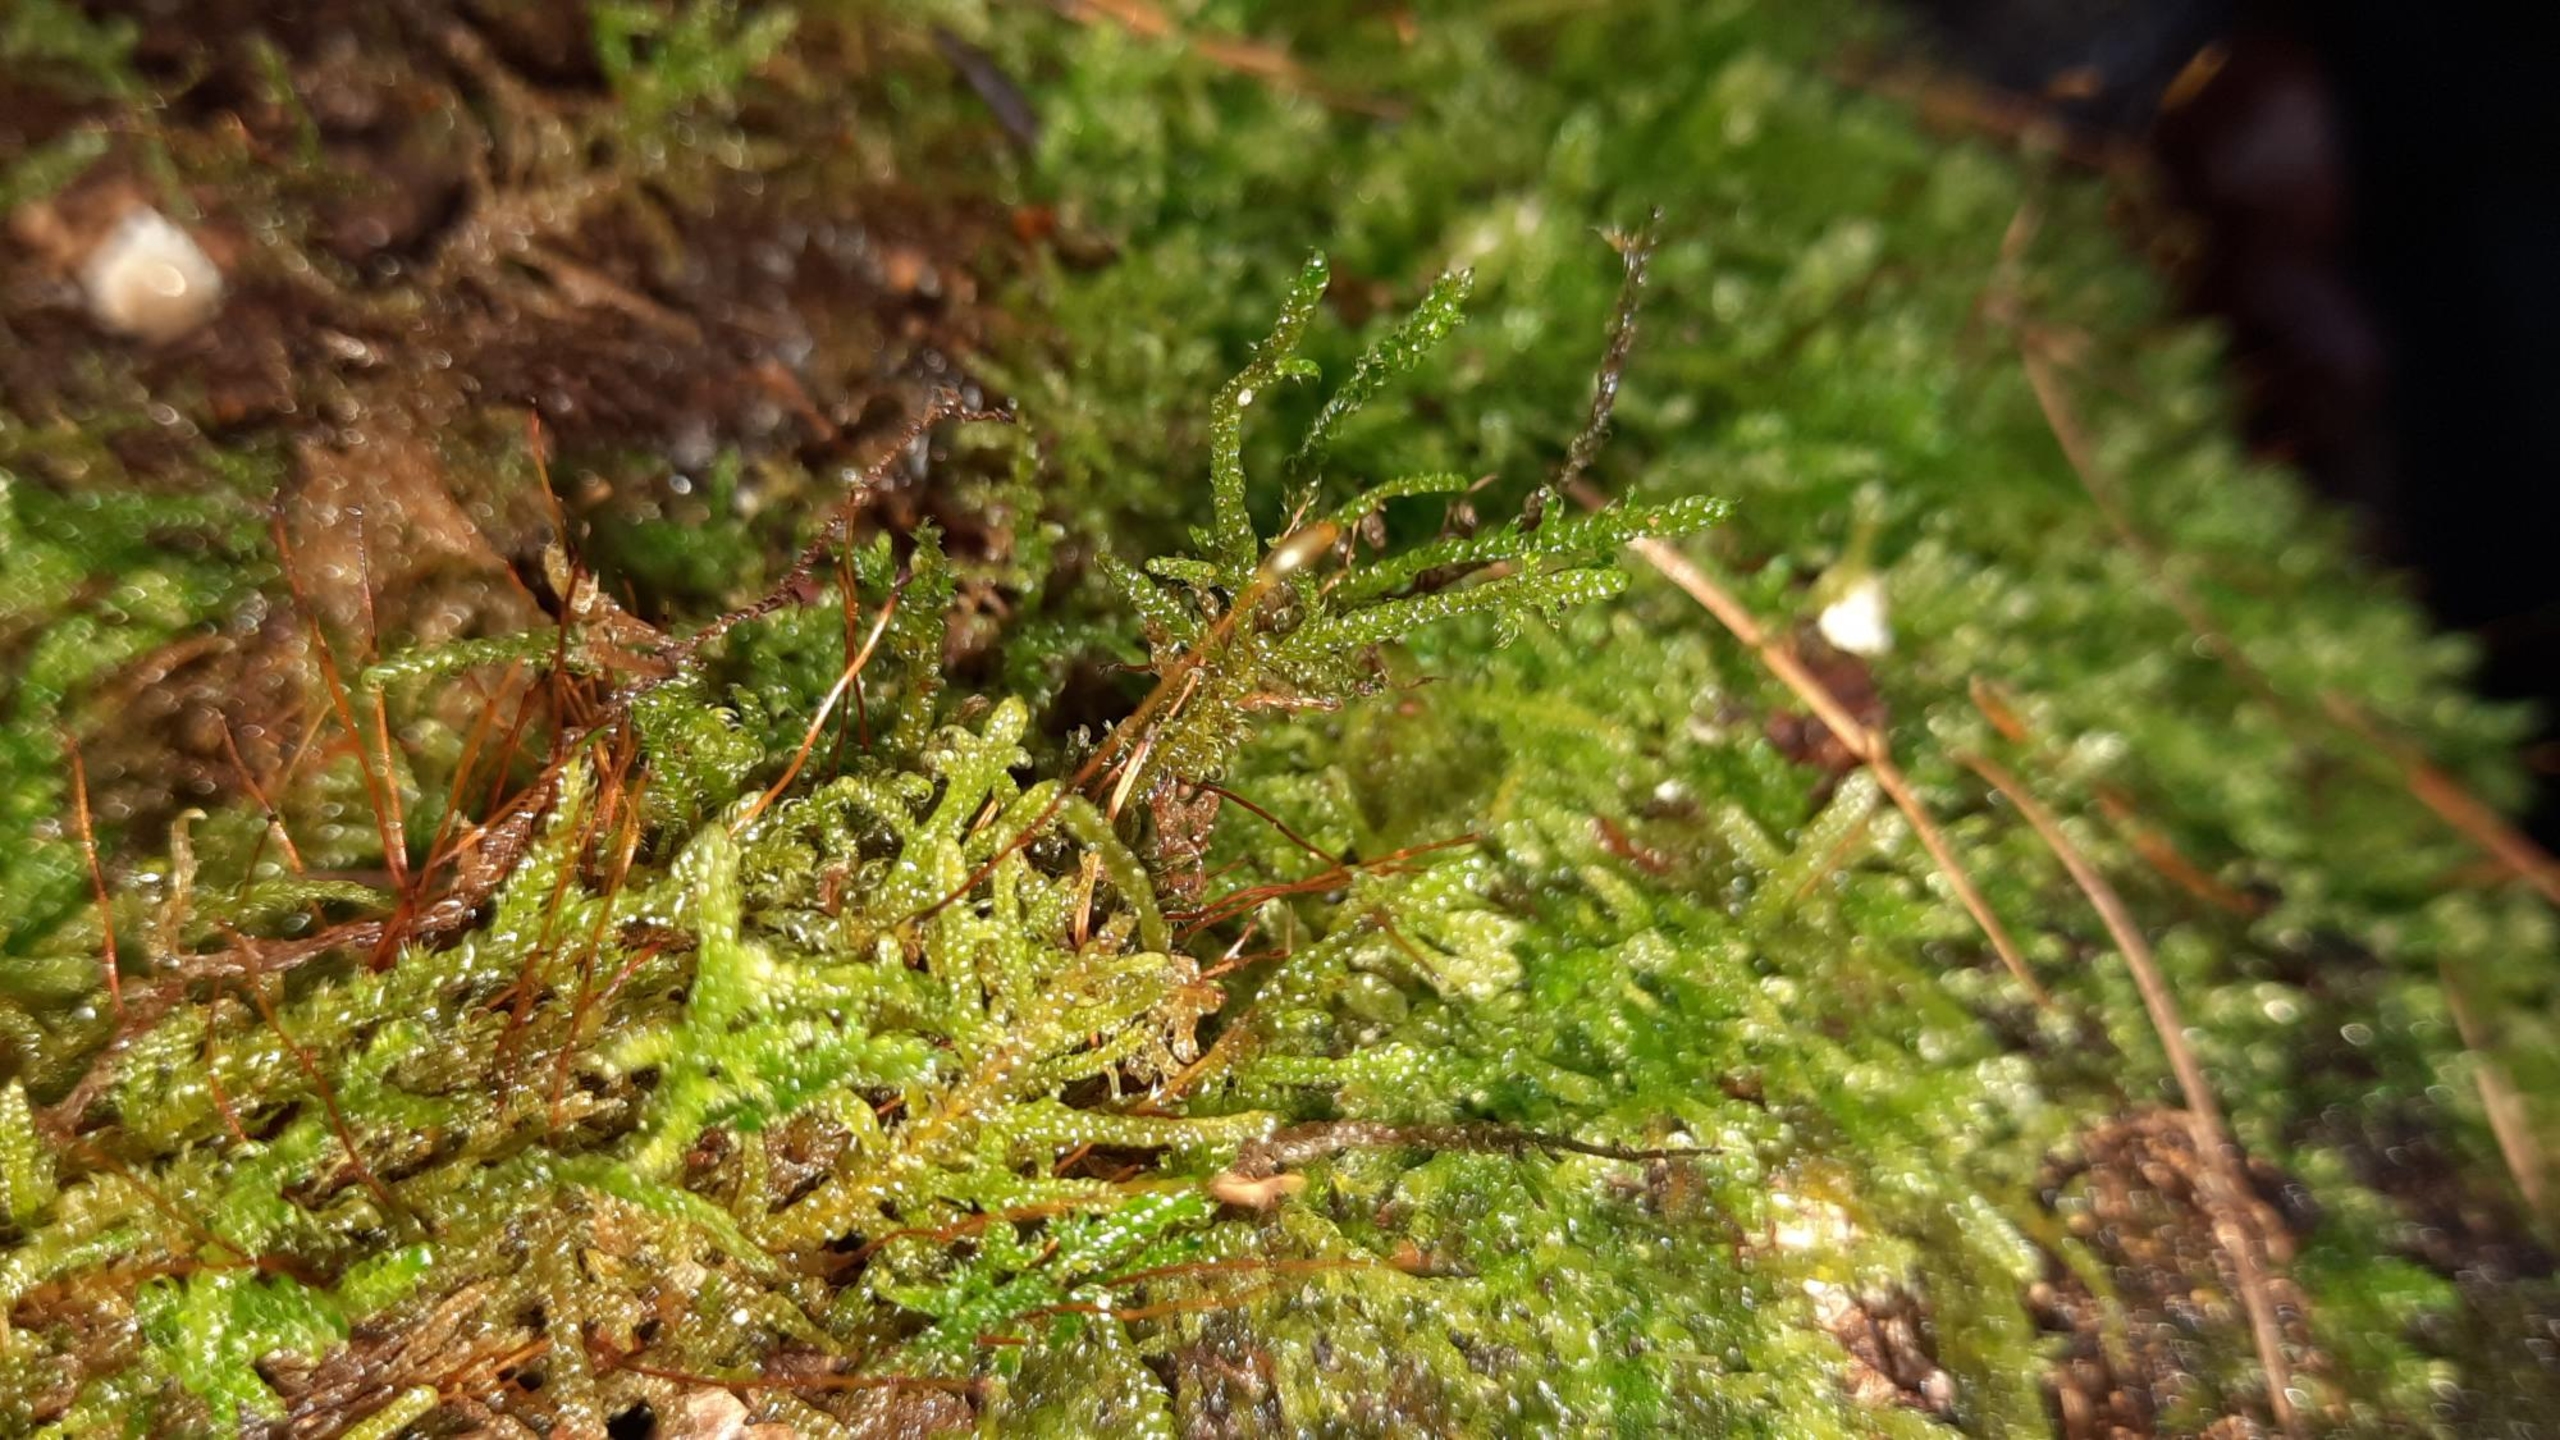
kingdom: Plantae
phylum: Bryophyta
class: Bryopsida
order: Hypnales
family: Hypnaceae
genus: Hypnum
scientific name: Hypnum andoi
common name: Vortet cypresmos
